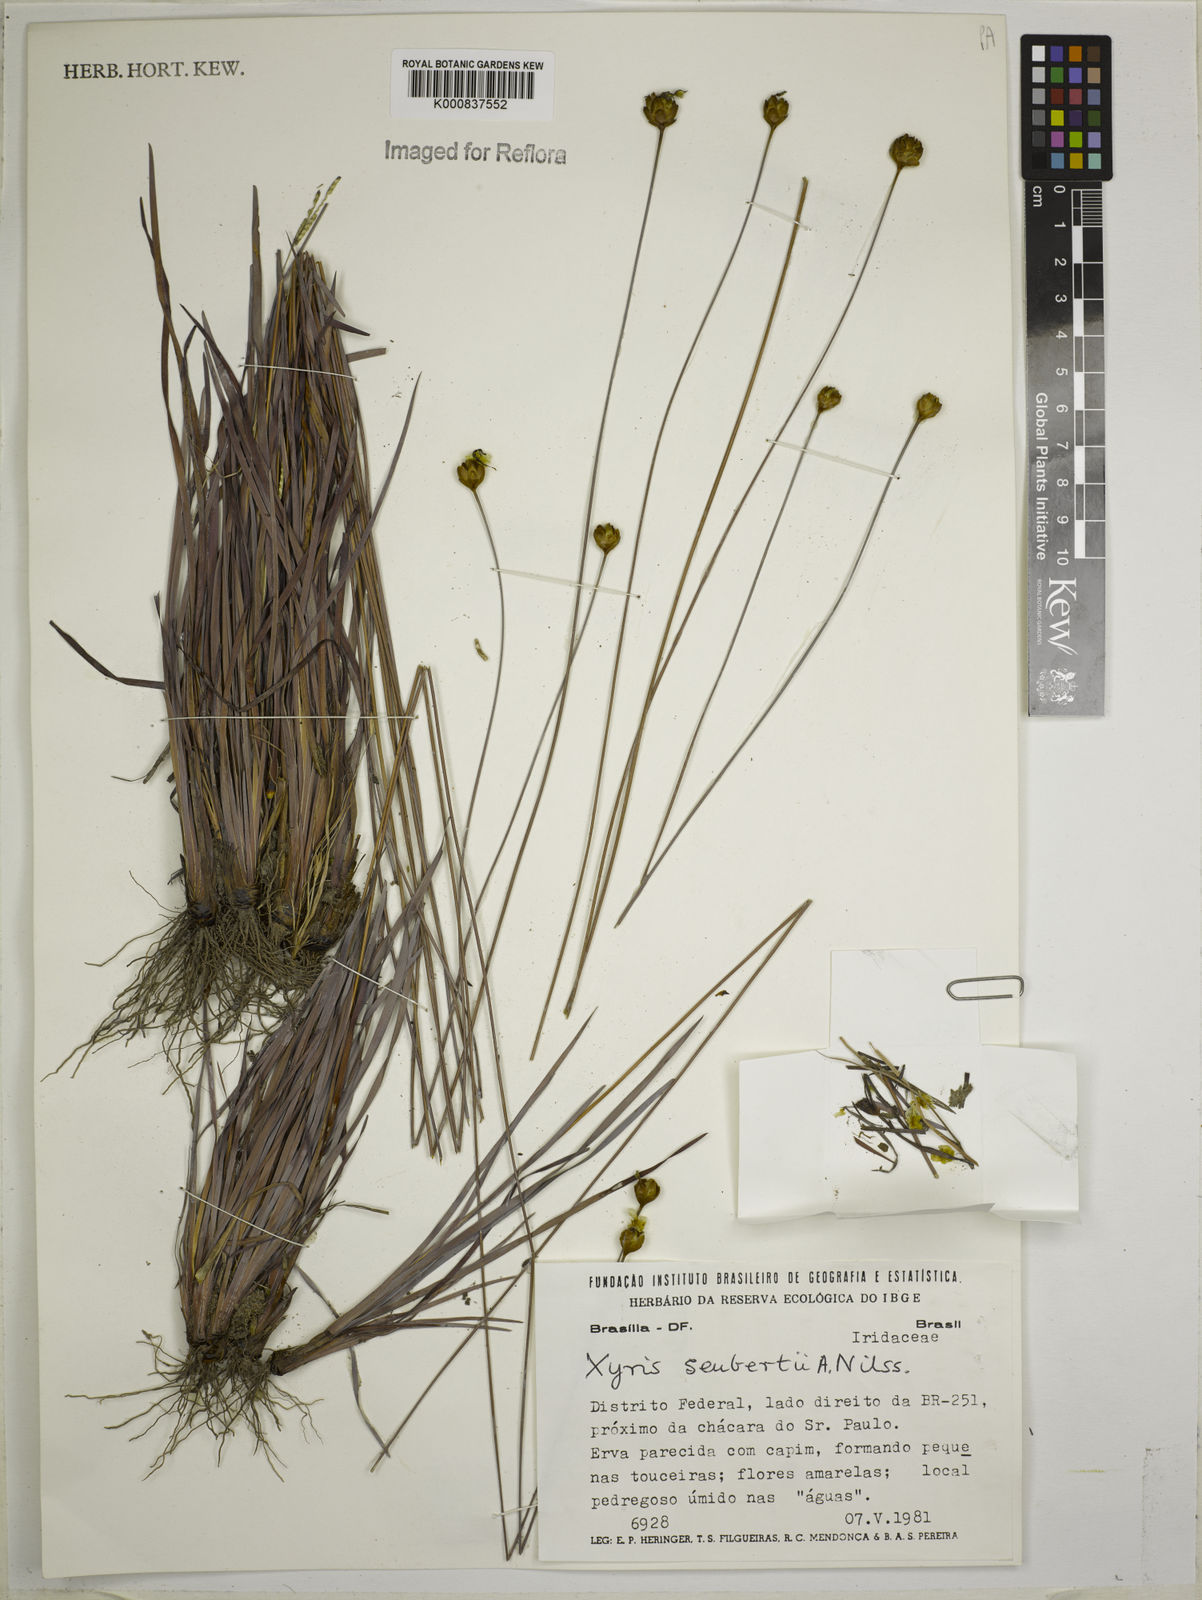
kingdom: Plantae
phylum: Tracheophyta
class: Liliopsida
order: Poales
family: Xyridaceae
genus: Xyris
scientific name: Xyris seubertii
